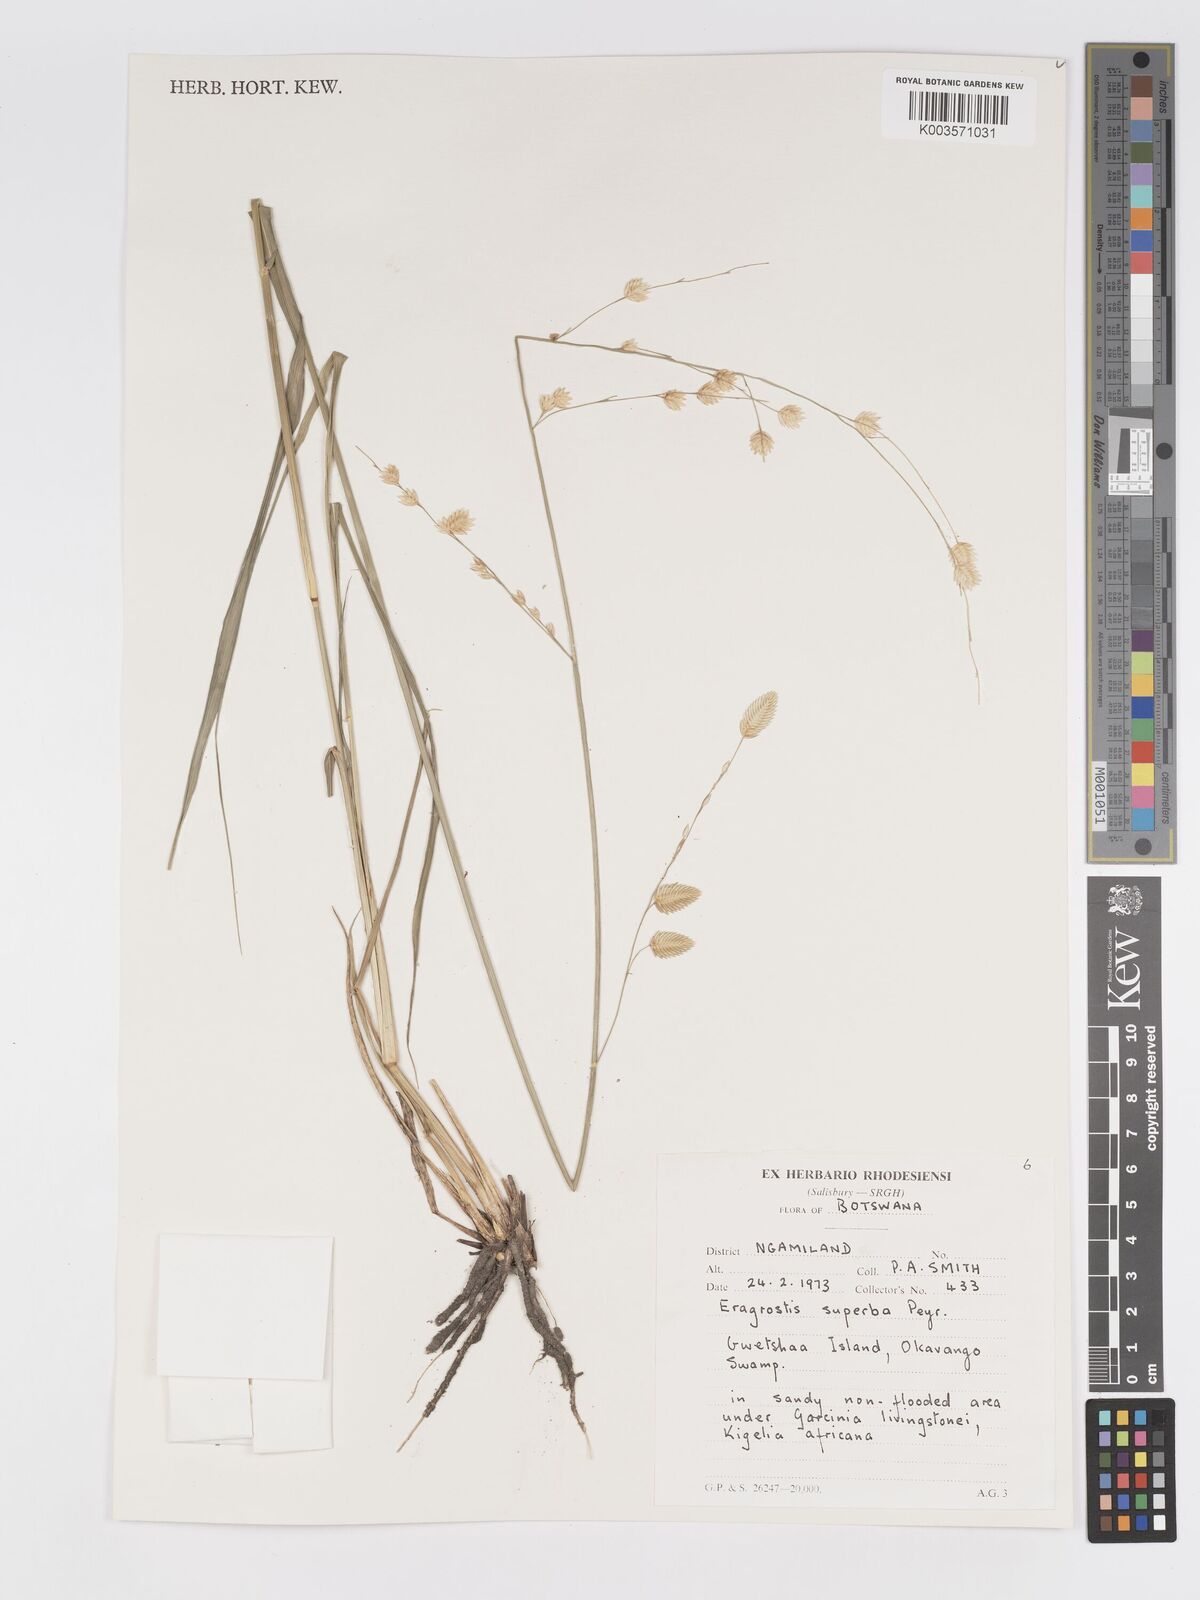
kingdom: Plantae
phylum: Tracheophyta
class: Liliopsida
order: Poales
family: Poaceae
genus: Eragrostis
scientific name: Eragrostis superba
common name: Wilman lovegrass
